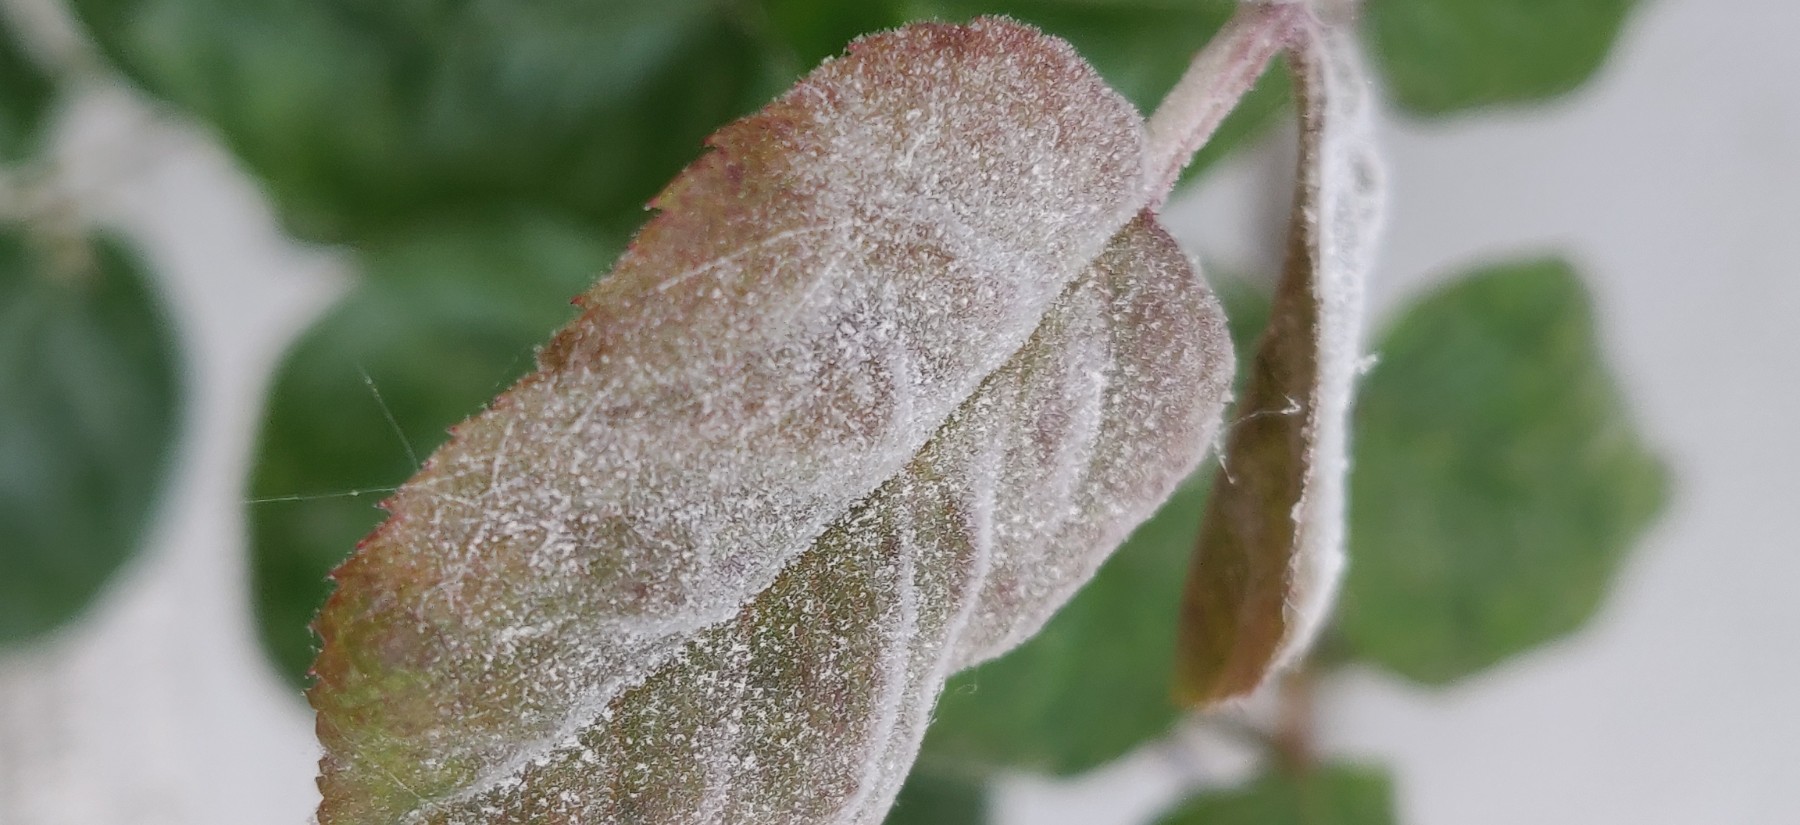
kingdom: Fungi
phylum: Ascomycota
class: Leotiomycetes
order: Helotiales
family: Erysiphaceae
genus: Podosphaera
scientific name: Podosphaera pannosa
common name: Rose mildew
